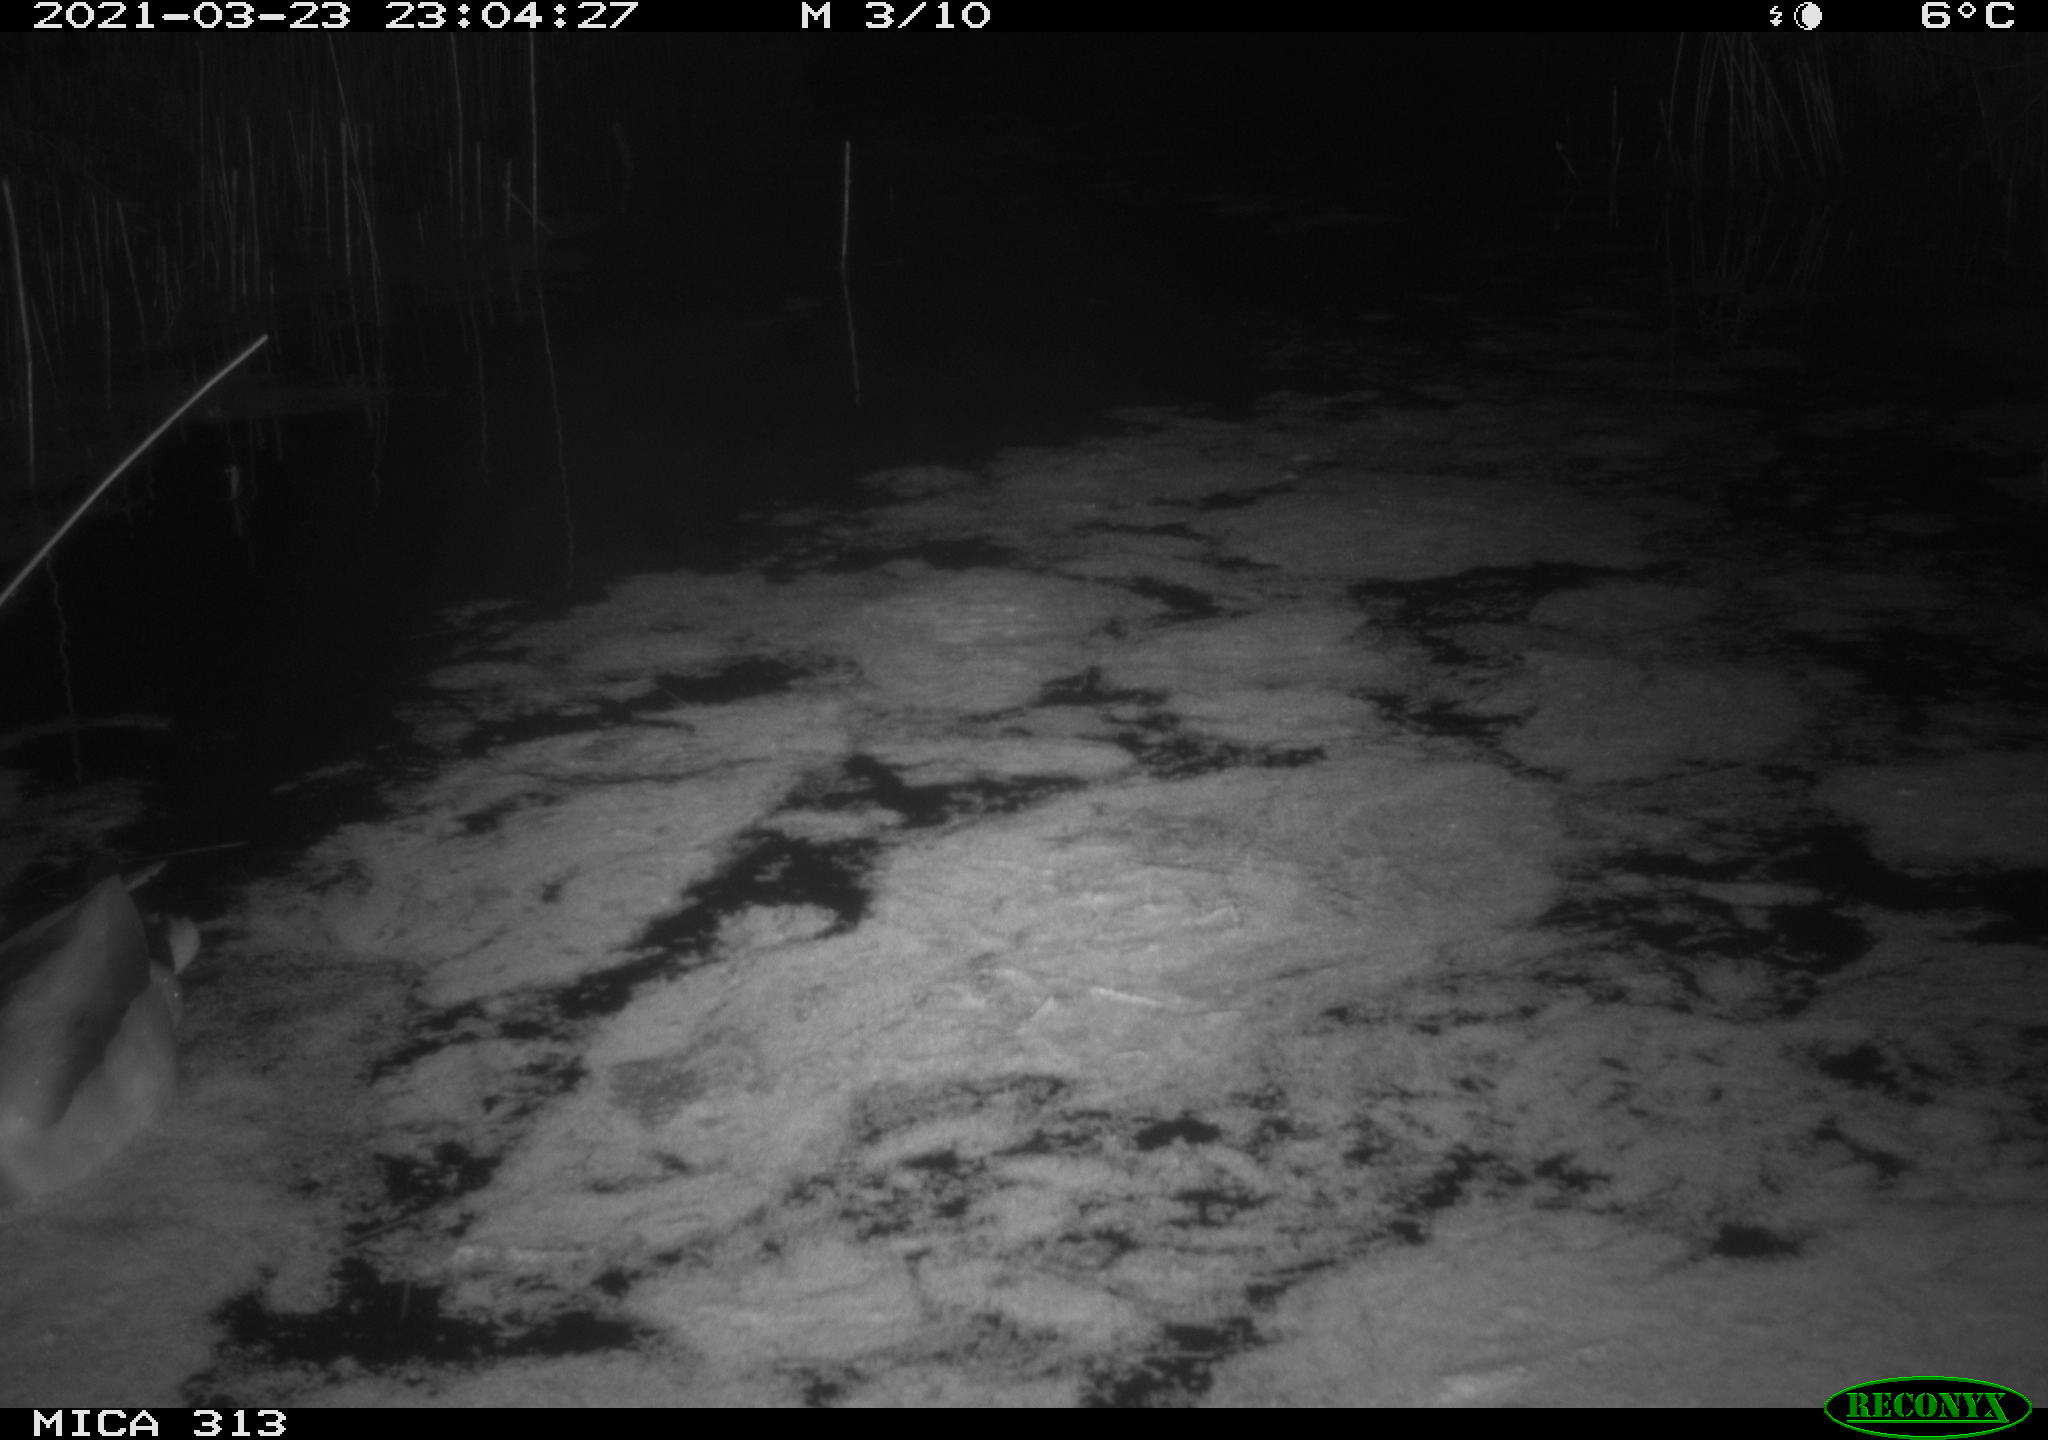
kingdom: Animalia
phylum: Chordata
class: Aves
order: Anseriformes
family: Anatidae
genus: Anas
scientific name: Anas platyrhynchos
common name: Mallard
